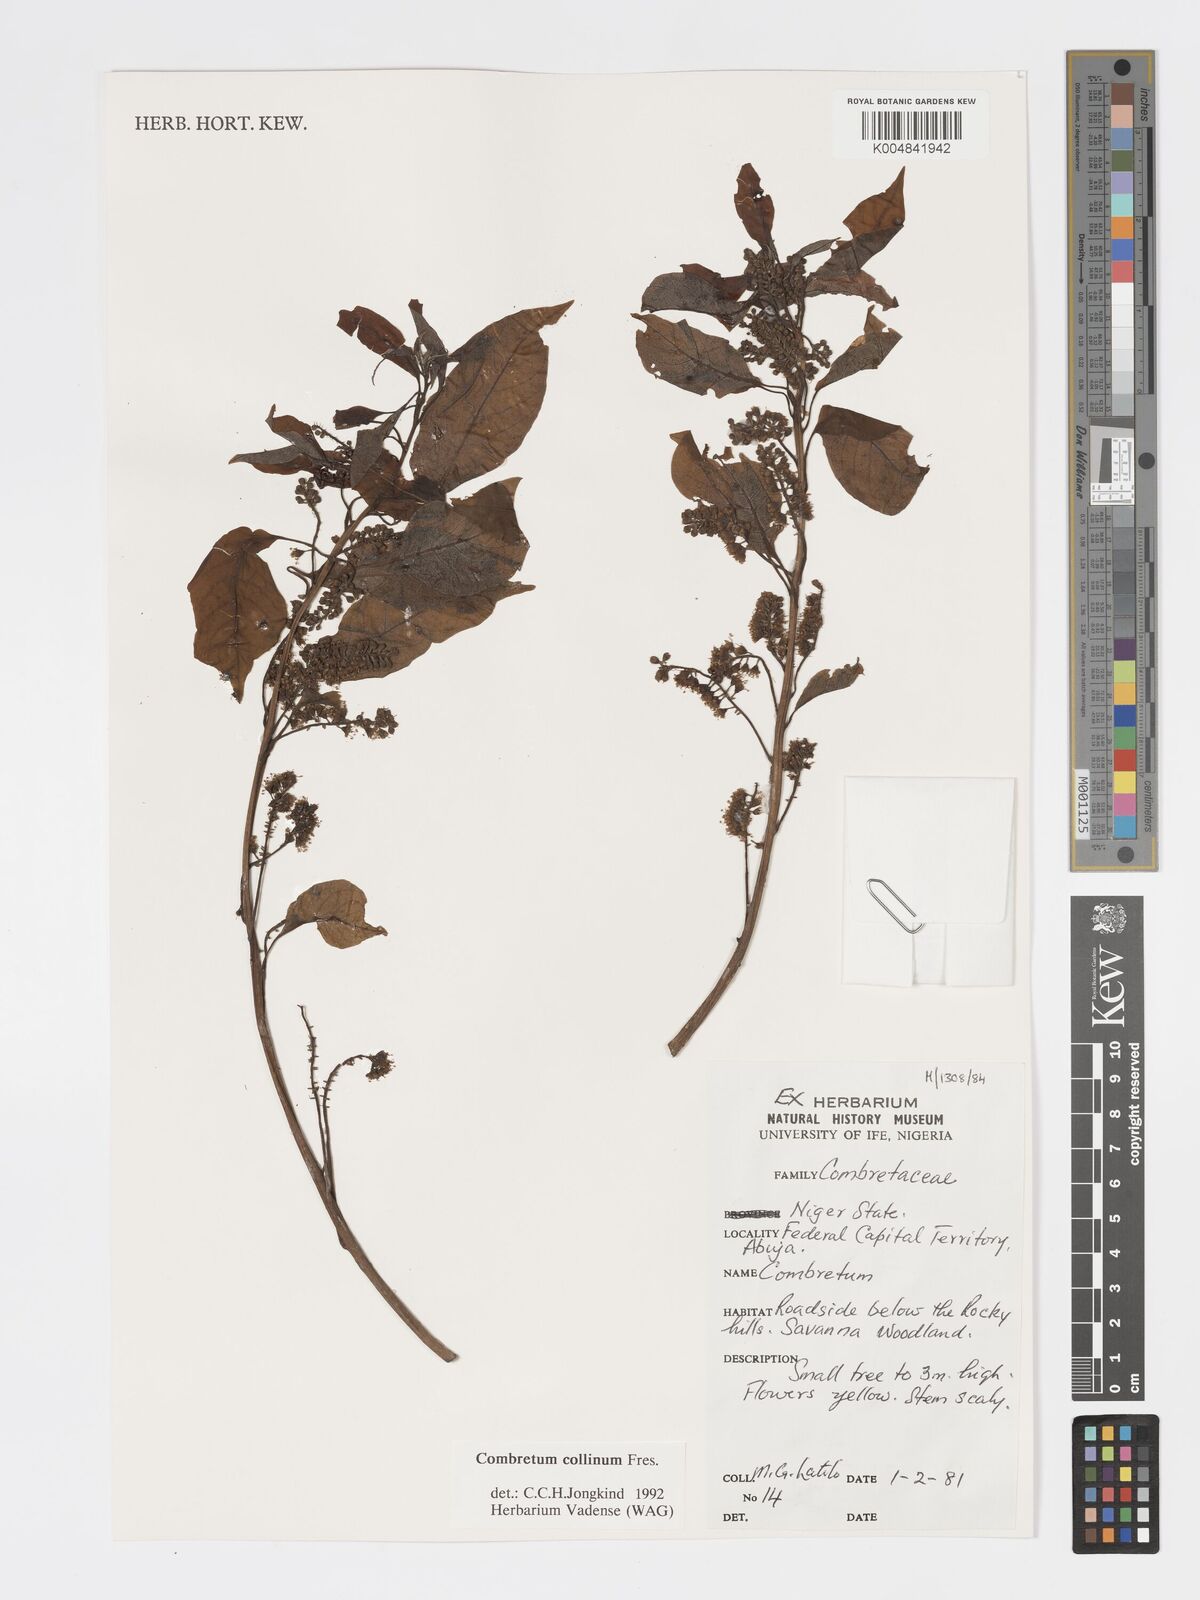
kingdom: Plantae
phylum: Tracheophyta
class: Magnoliopsida
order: Myrtales
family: Combretaceae
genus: Combretum
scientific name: Combretum collinum
